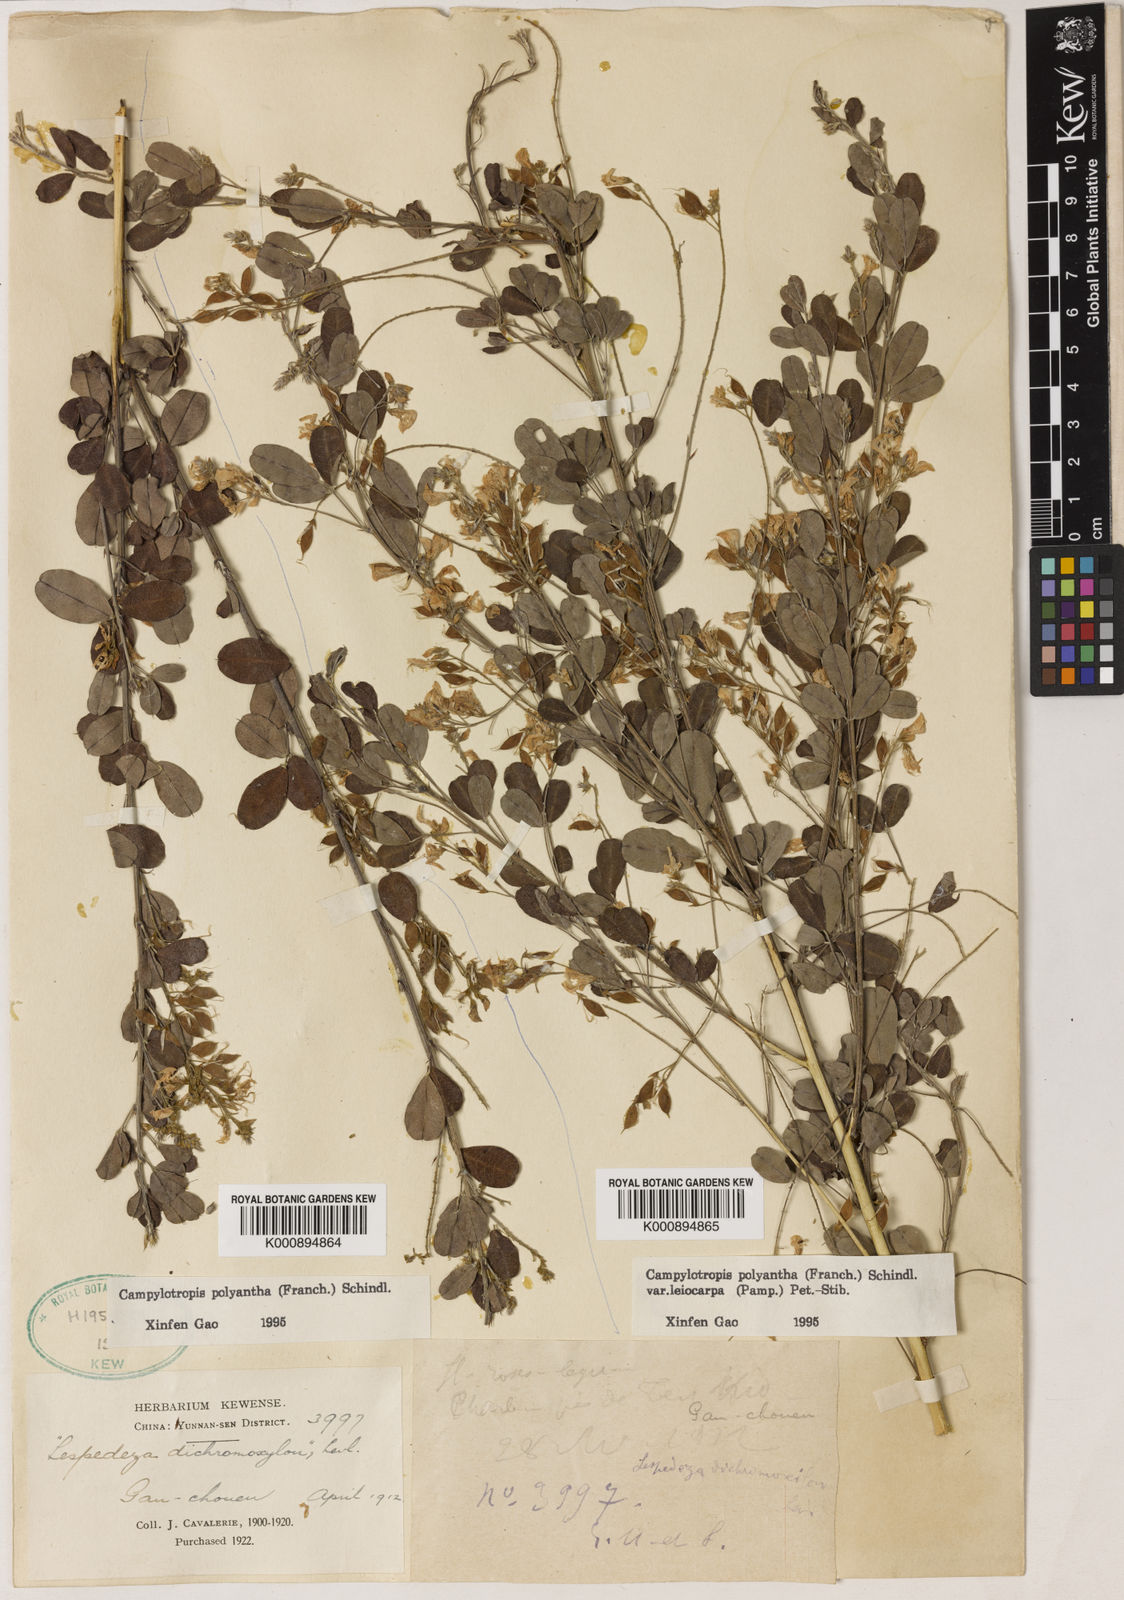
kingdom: Plantae
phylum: Tracheophyta
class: Magnoliopsida
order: Fabales
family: Fabaceae
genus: Campylotropis
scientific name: Campylotropis polyantha
